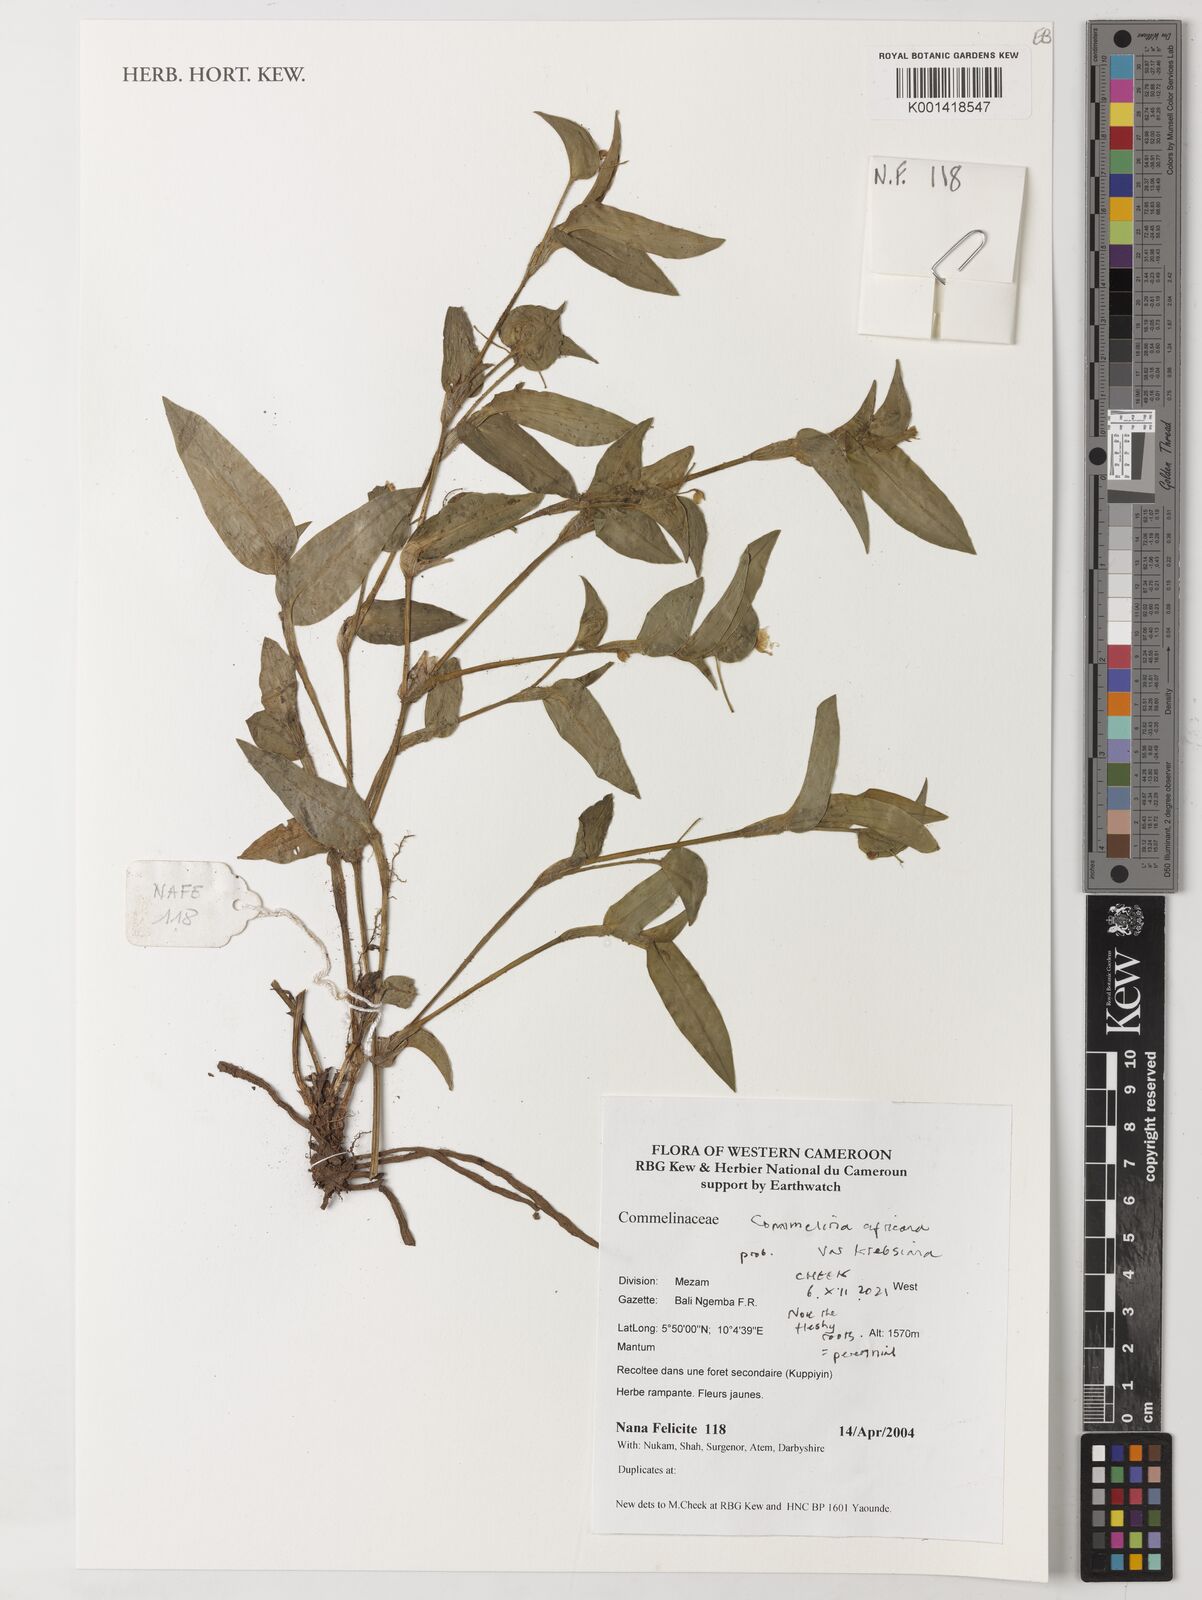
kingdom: Plantae
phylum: Tracheophyta
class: Liliopsida
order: Commelinales
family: Commelinaceae
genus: Commelina
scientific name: Commelina africana
